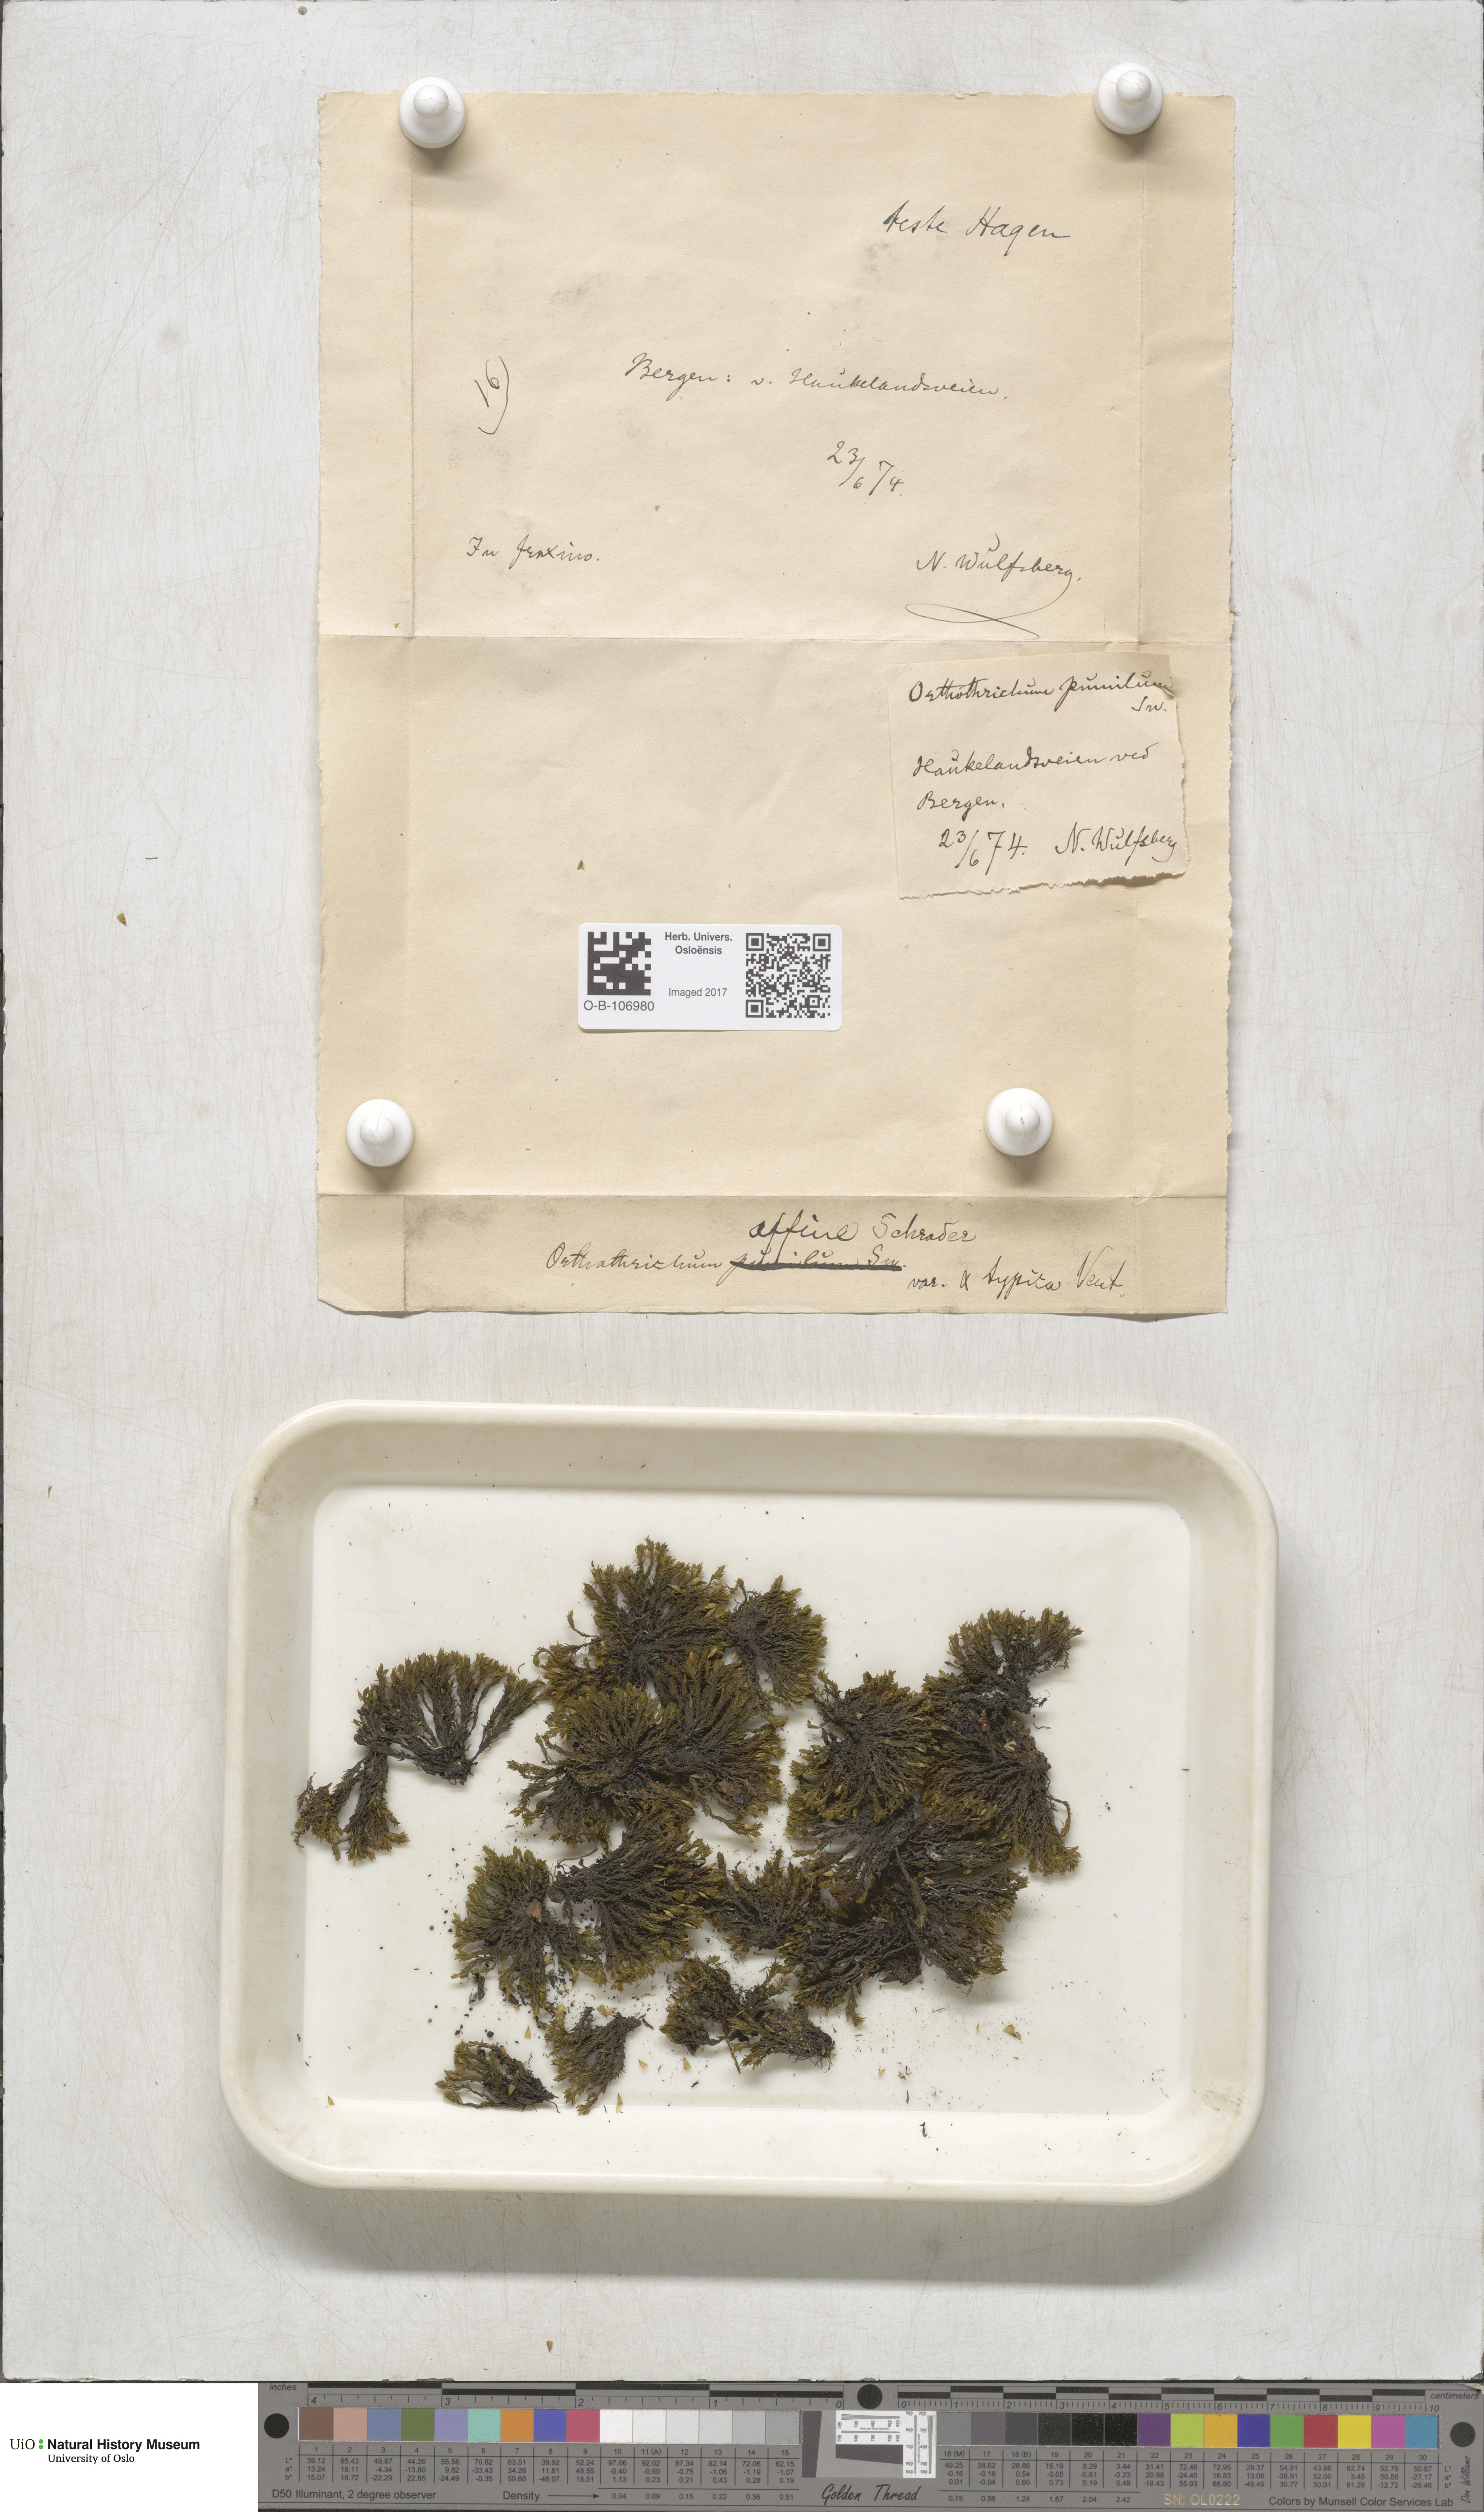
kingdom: Plantae
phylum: Bryophyta
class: Bryopsida
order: Orthotrichales
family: Orthotrichaceae
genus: Lewinskya
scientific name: Lewinskya affinis
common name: Wood bristle-moss
